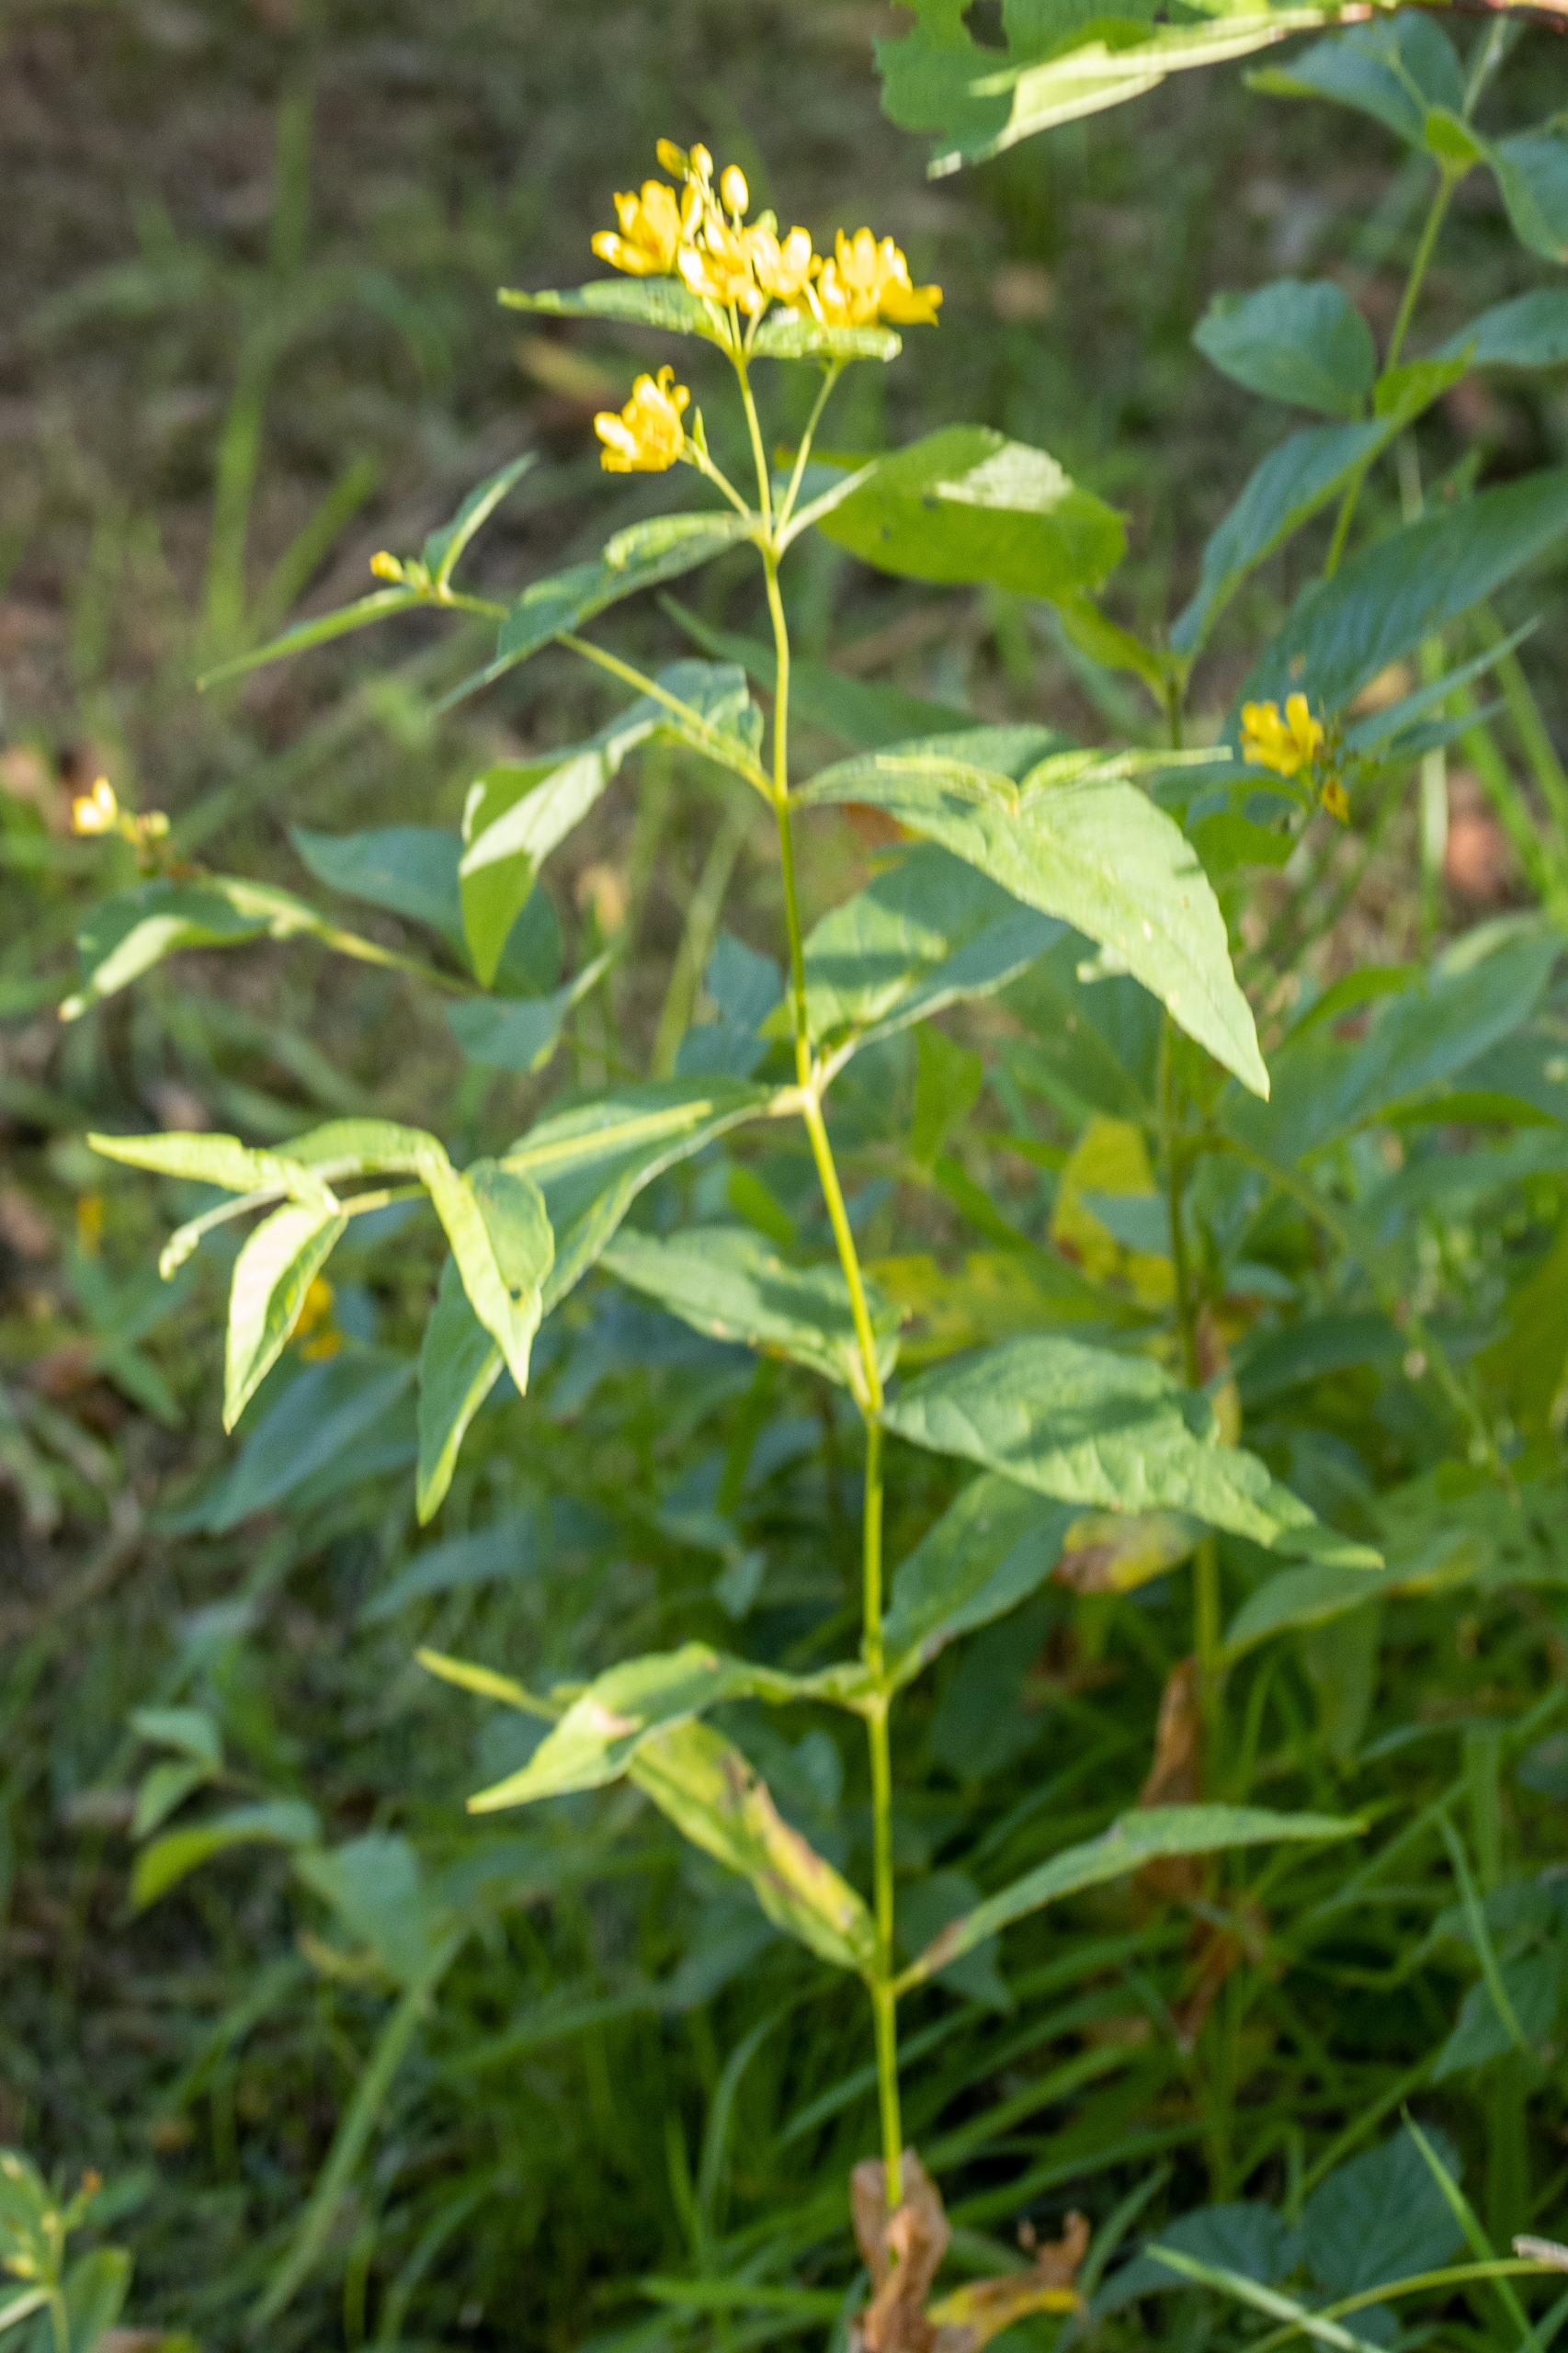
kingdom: Plantae
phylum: Tracheophyta
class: Magnoliopsida
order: Ericales
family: Primulaceae
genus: Lysimachia
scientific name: Lysimachia vulgaris
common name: Almindelig fredløs
